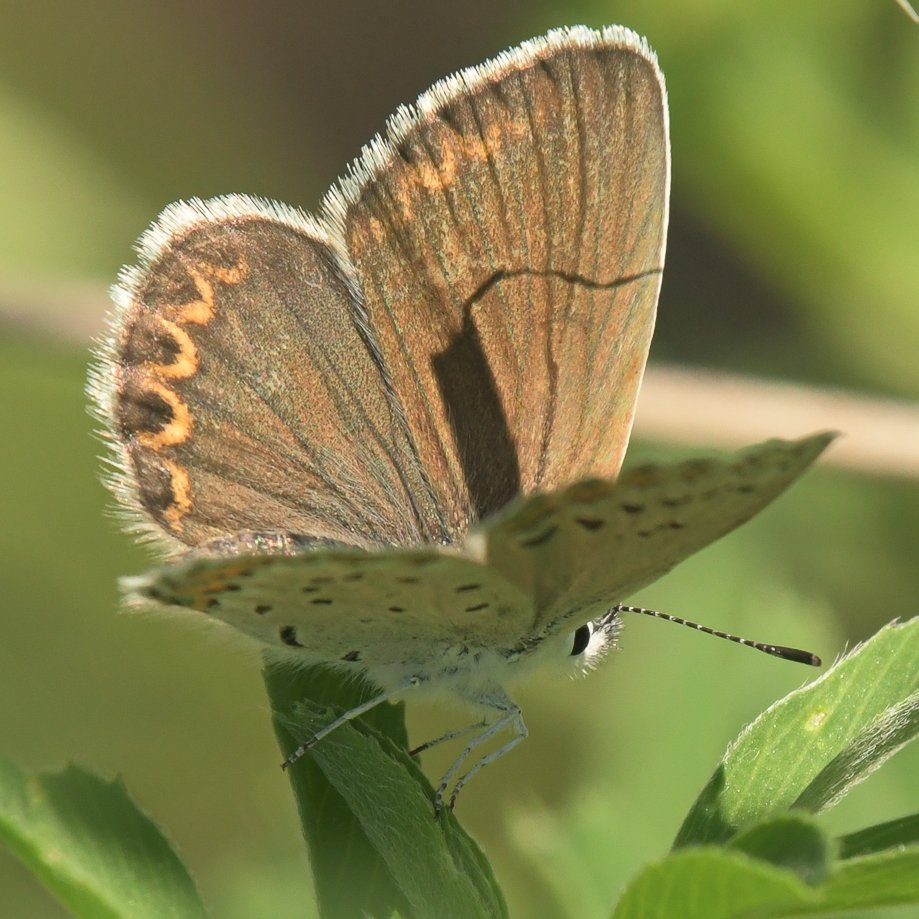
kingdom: Animalia
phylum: Arthropoda
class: Insecta
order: Lepidoptera
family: Lycaenidae
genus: Lycaeides
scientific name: Lycaeides idas
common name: Northern Blue
